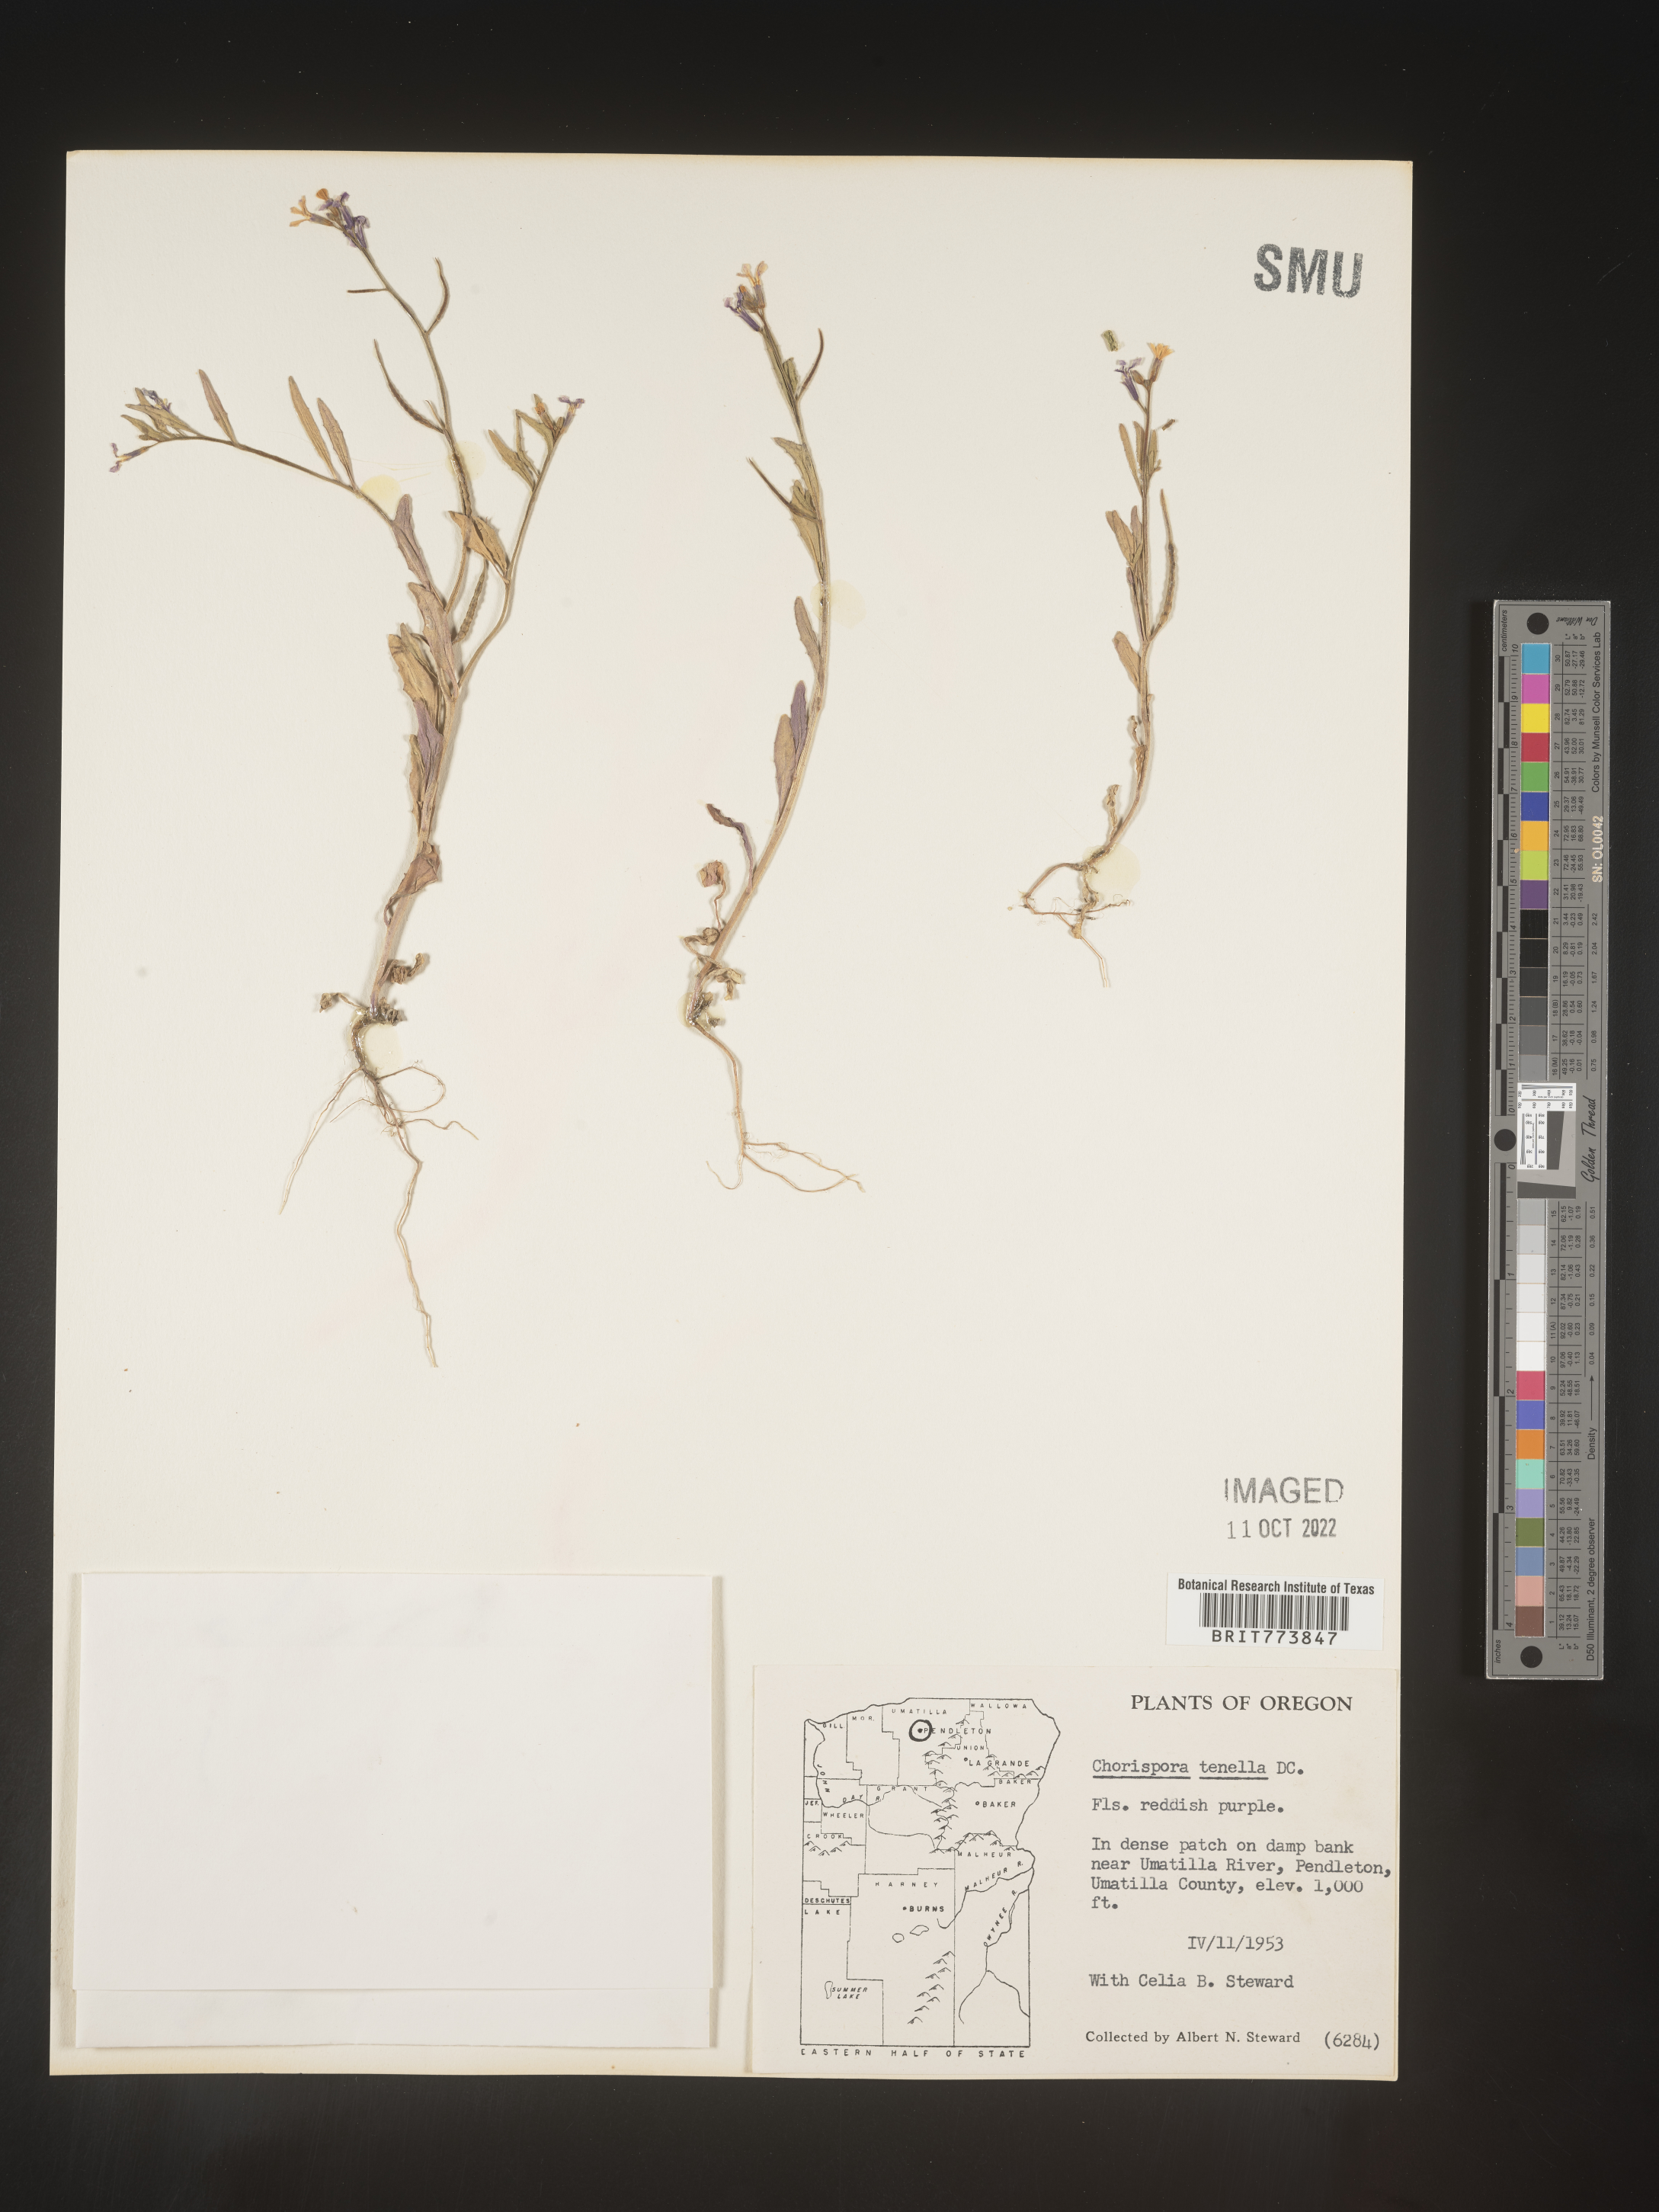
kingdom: Plantae
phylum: Tracheophyta
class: Magnoliopsida
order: Brassicales
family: Brassicaceae
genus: Chorispora
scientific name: Chorispora tenella
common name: Crossflower
